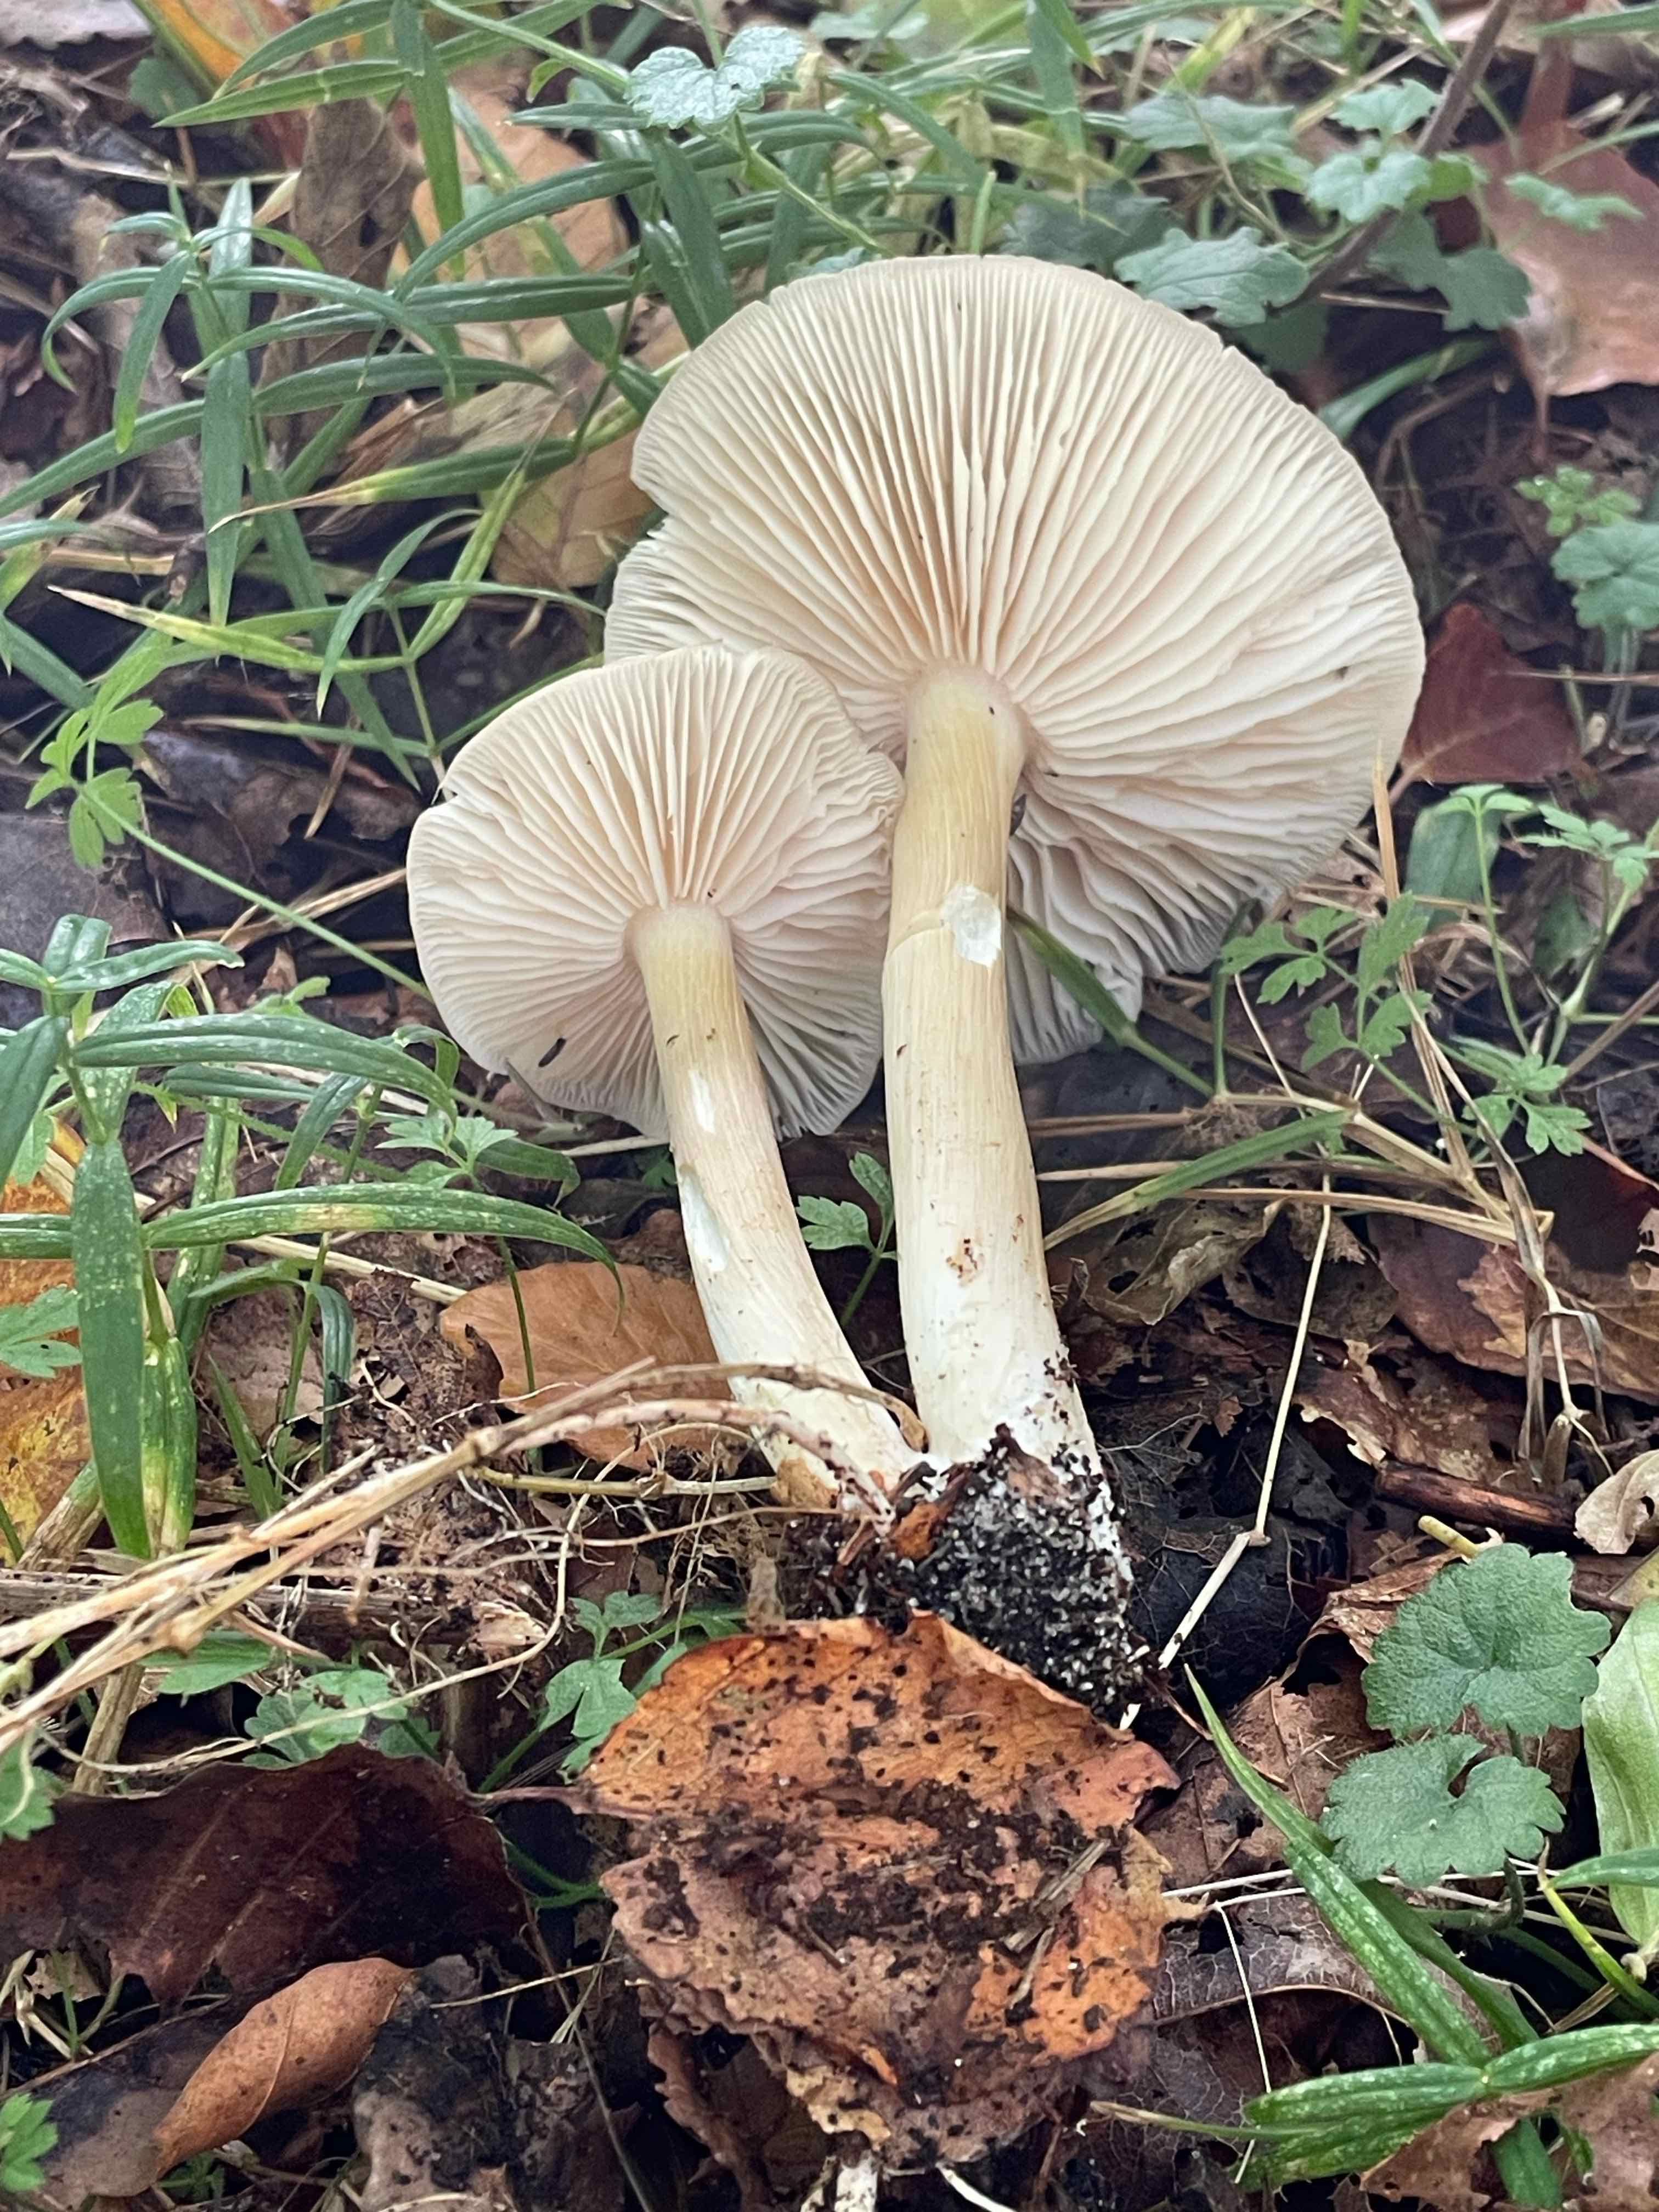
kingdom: Fungi
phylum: Basidiomycota
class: Agaricomycetes
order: Agaricales
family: Tricholomataceae
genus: Megacollybia
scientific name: Megacollybia platyphylla
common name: bredbladet væbnerhat
